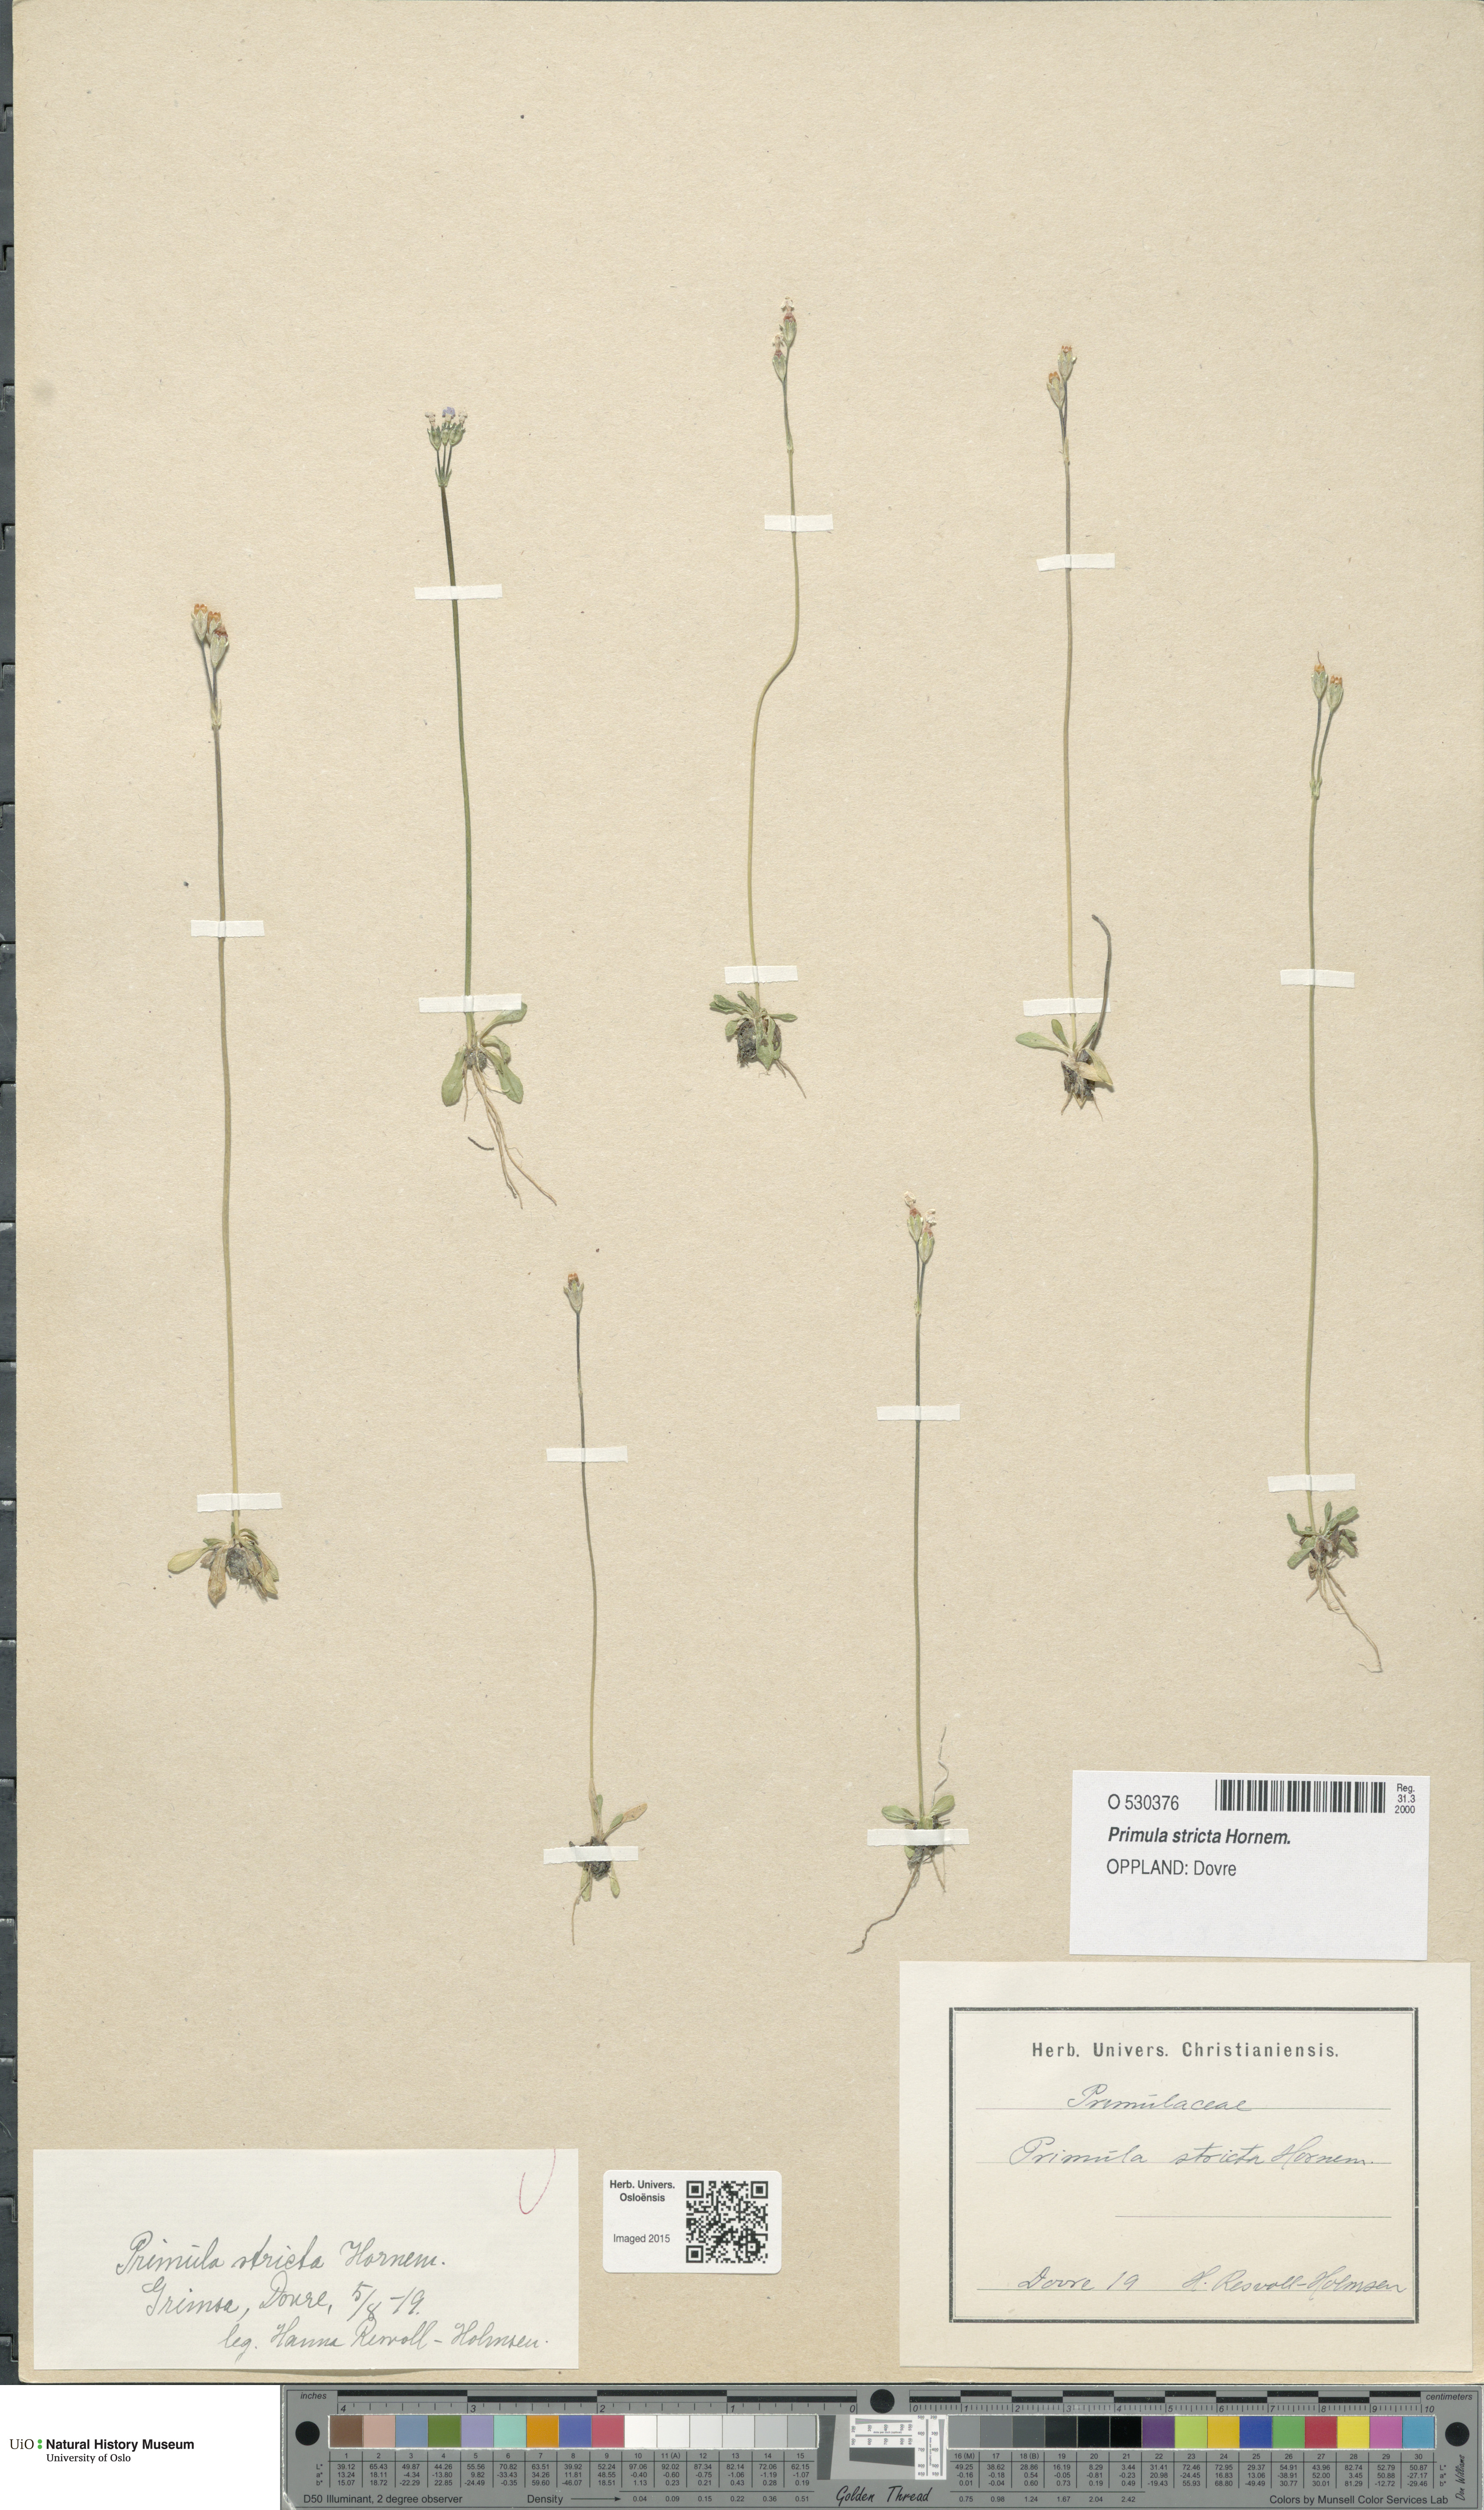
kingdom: Plantae
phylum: Tracheophyta
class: Magnoliopsida
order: Ericales
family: Primulaceae
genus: Primula
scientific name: Primula stricta
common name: Coastal primrose
